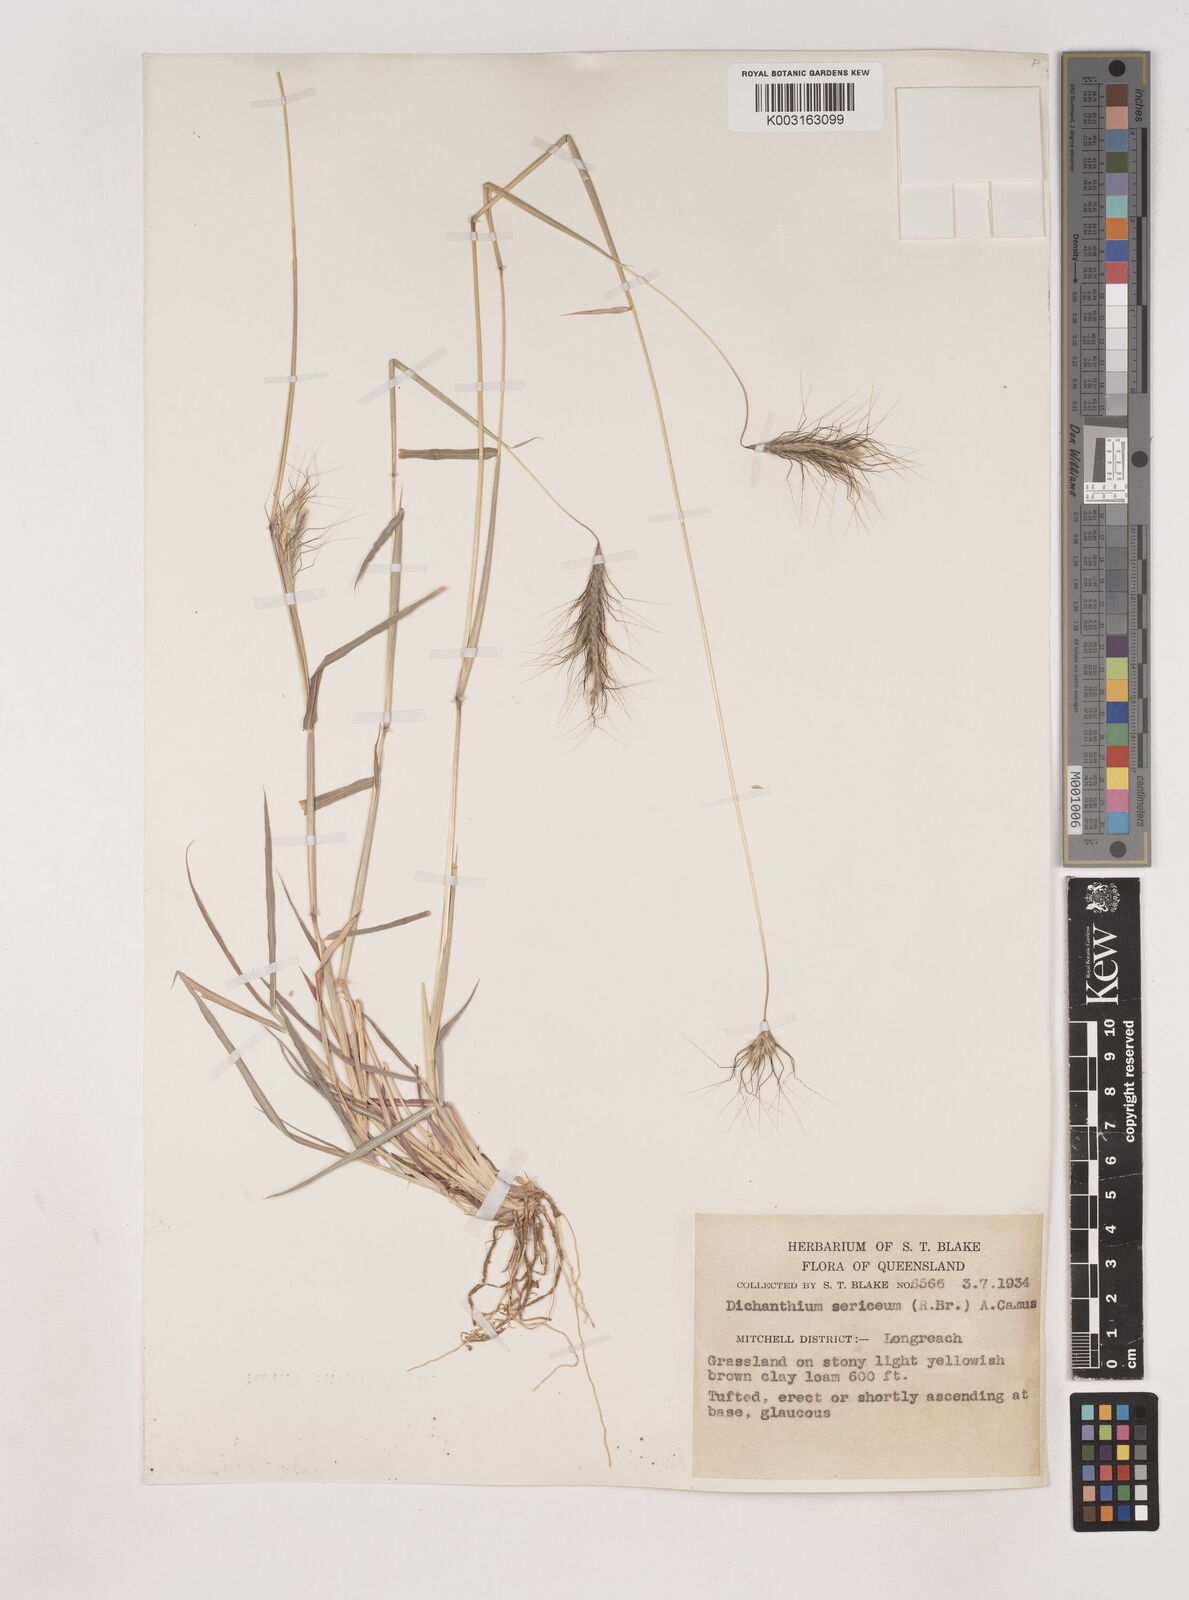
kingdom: Plantae
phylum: Tracheophyta
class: Liliopsida
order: Poales
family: Poaceae
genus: Dichanthium
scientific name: Dichanthium sericeum
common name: Silky bluestem
